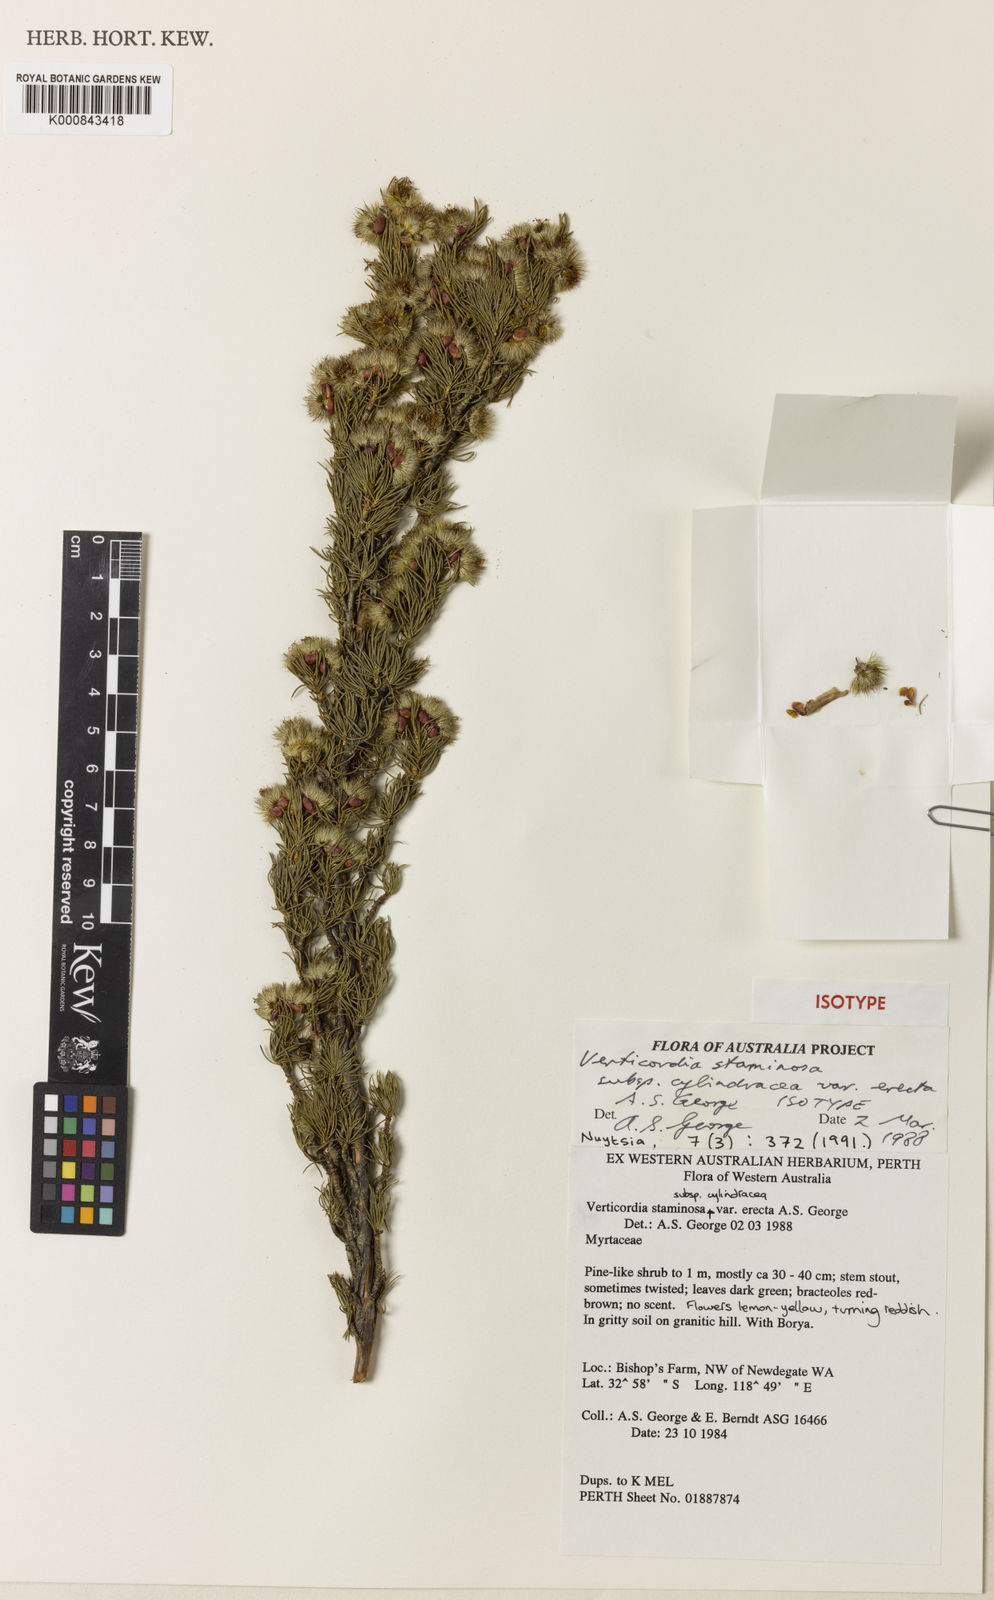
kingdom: Plantae
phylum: Tracheophyta
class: Magnoliopsida
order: Myrtales
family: Myrtaceae
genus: Verticordia
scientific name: Verticordia staminosa
